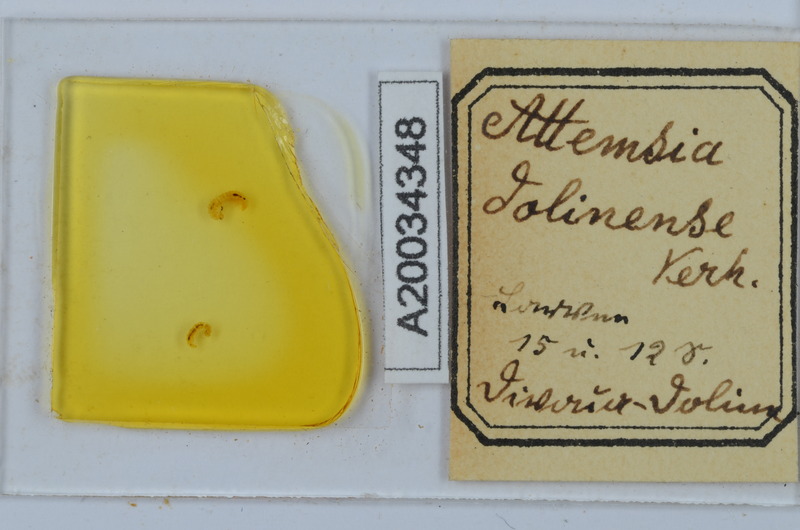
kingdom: Animalia
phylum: Arthropoda
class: Diplopoda
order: Chordeumatida
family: Attemsiidae
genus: Attemsia
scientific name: Attemsia dolinensis
